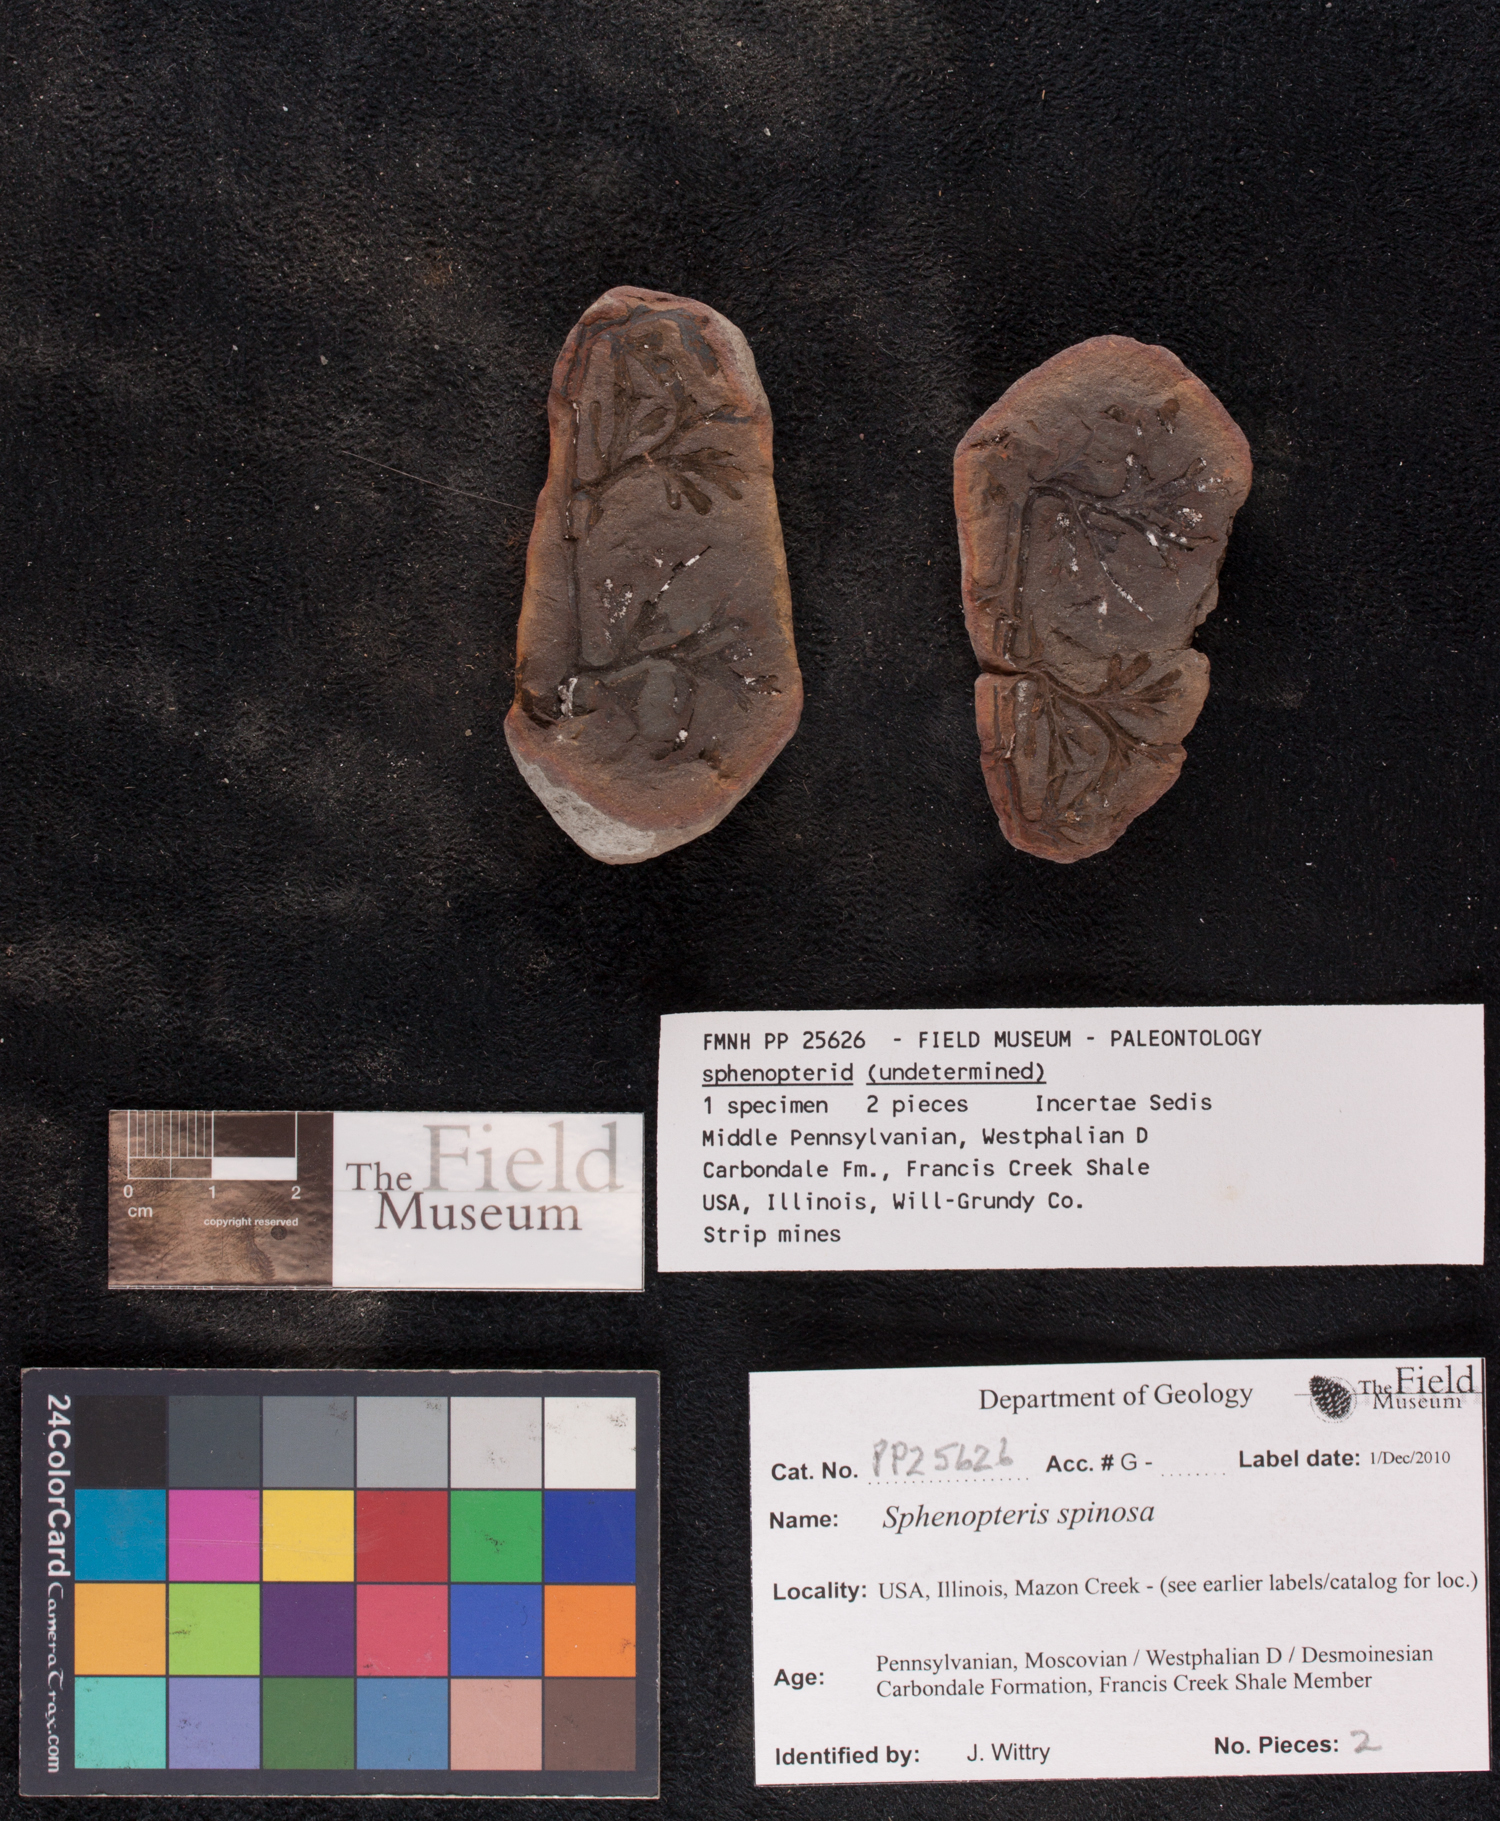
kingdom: Plantae
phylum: Tracheophyta
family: Lyginopteridaceae
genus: Sphenopteris
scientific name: Sphenopteris
